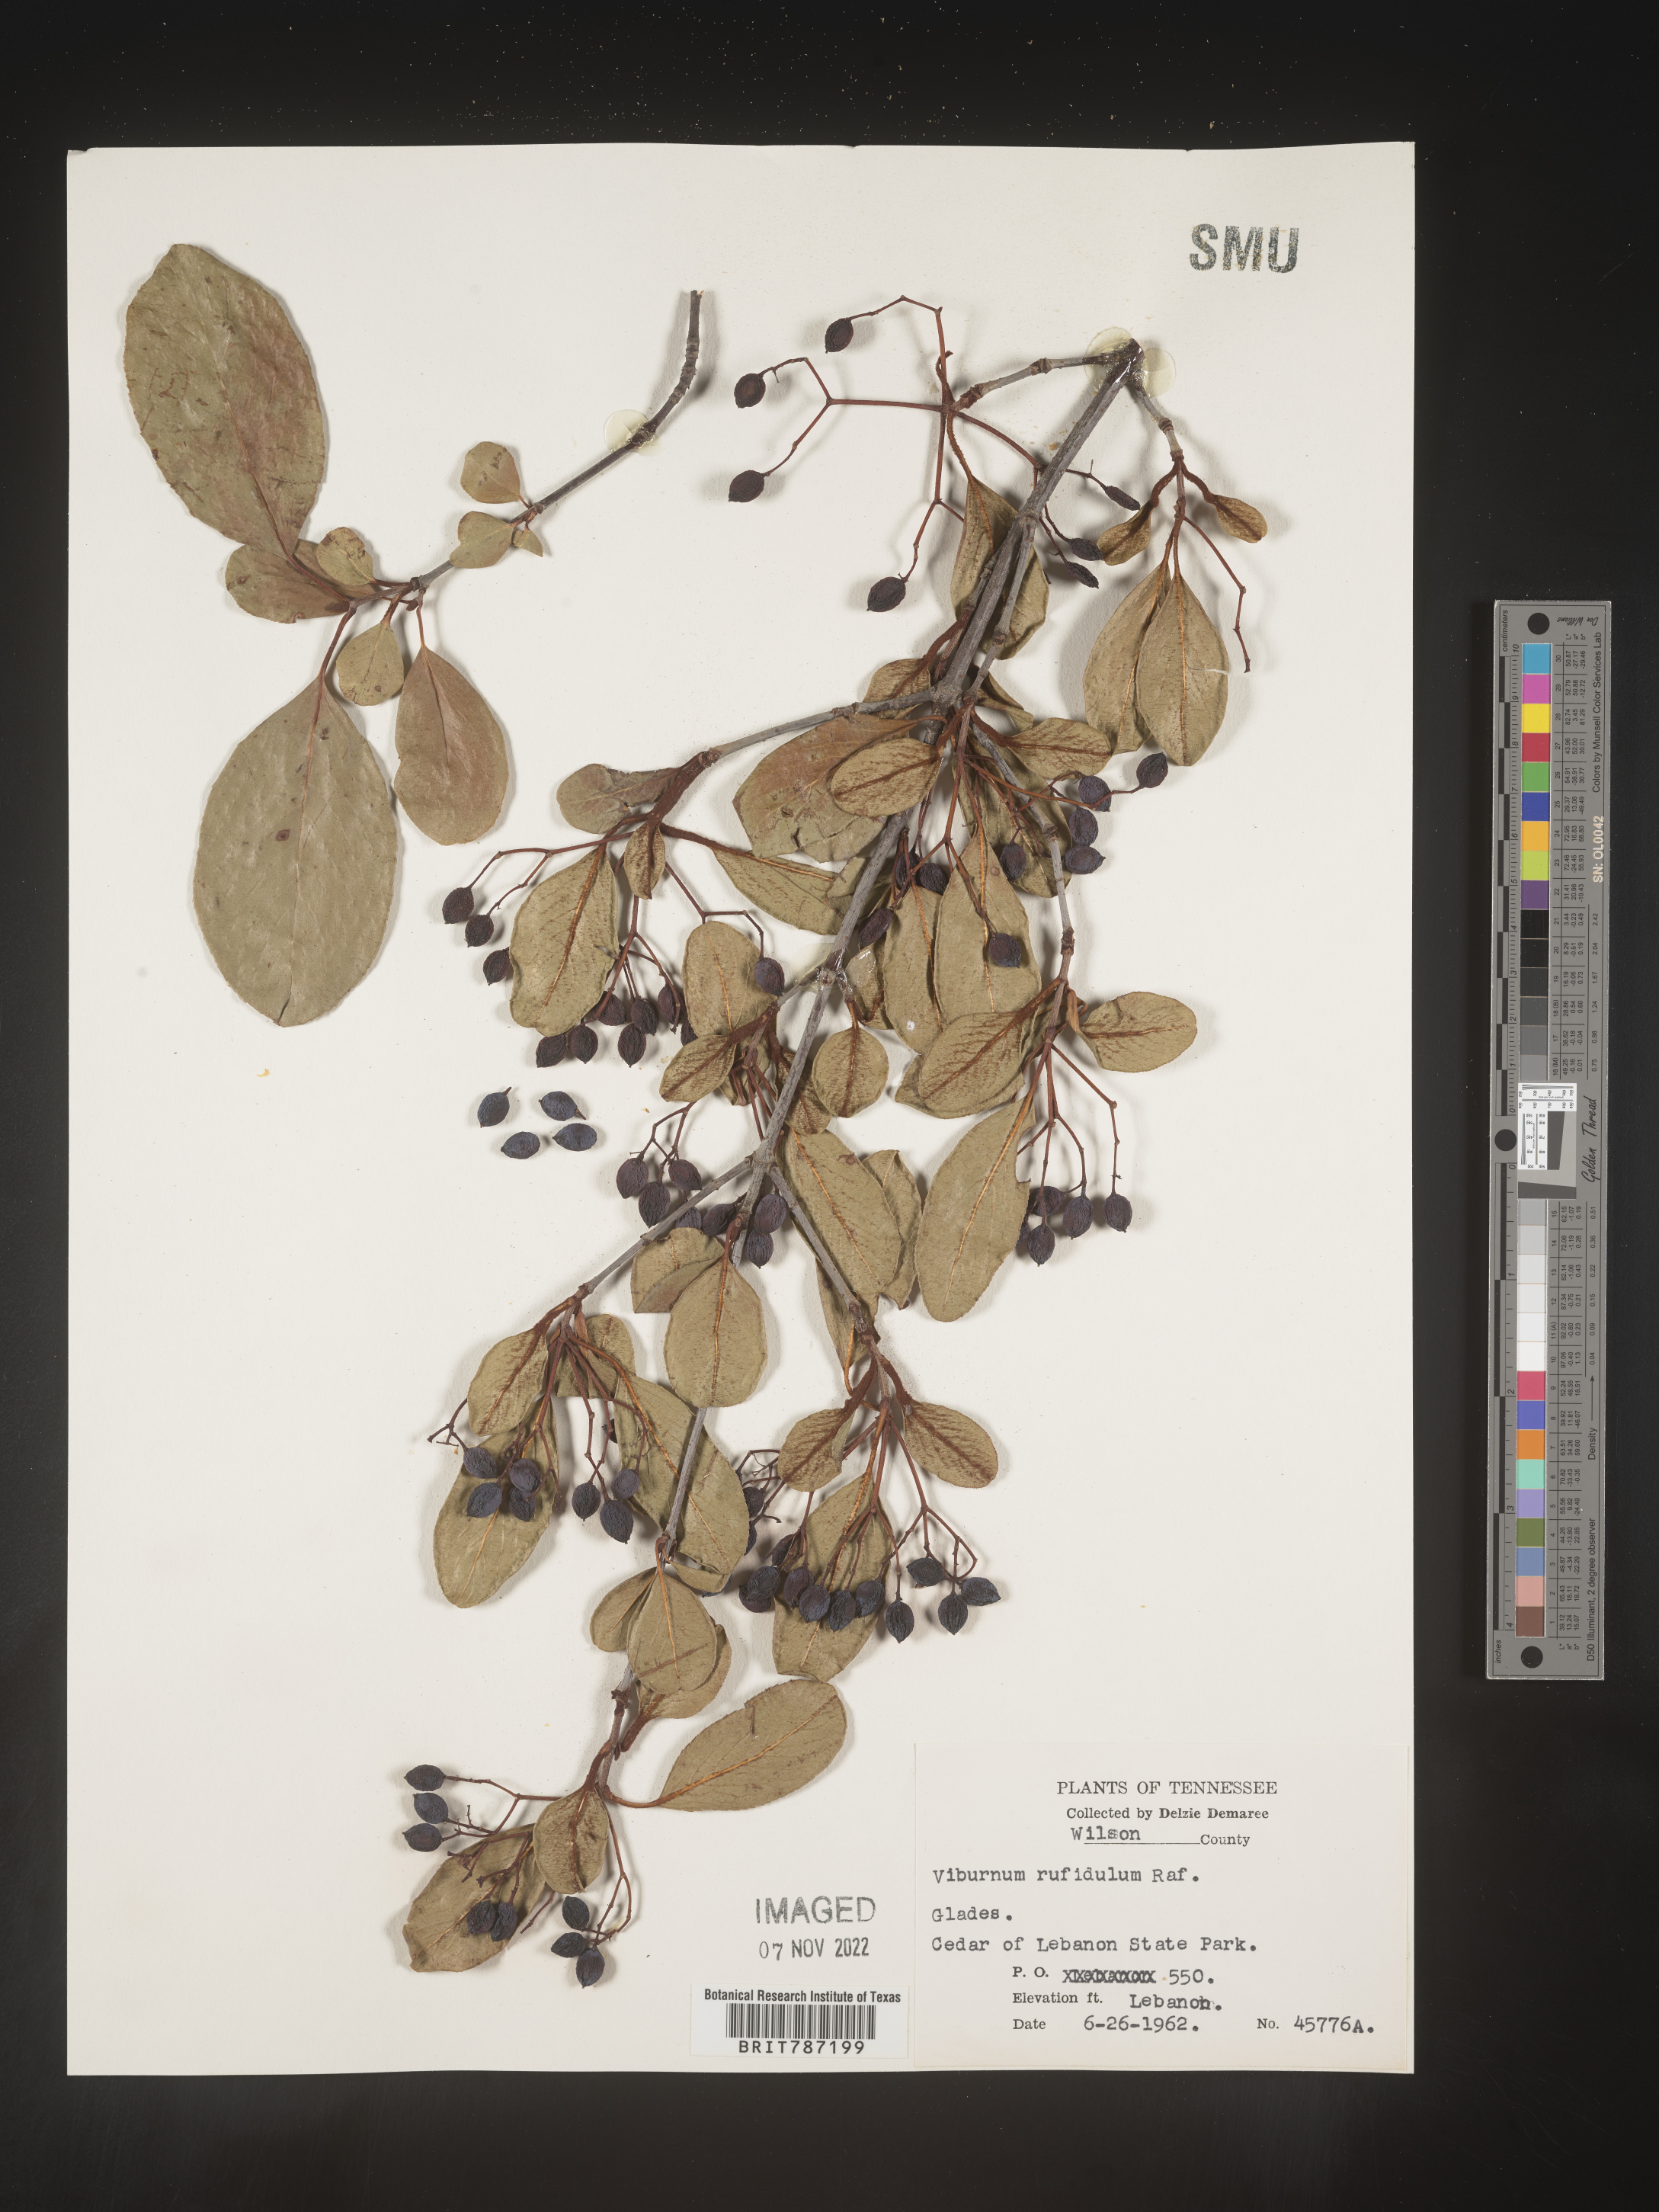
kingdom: Plantae
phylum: Tracheophyta
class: Magnoliopsida
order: Dipsacales
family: Viburnaceae
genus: Viburnum
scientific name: Viburnum rufidulum
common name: Blue haw
